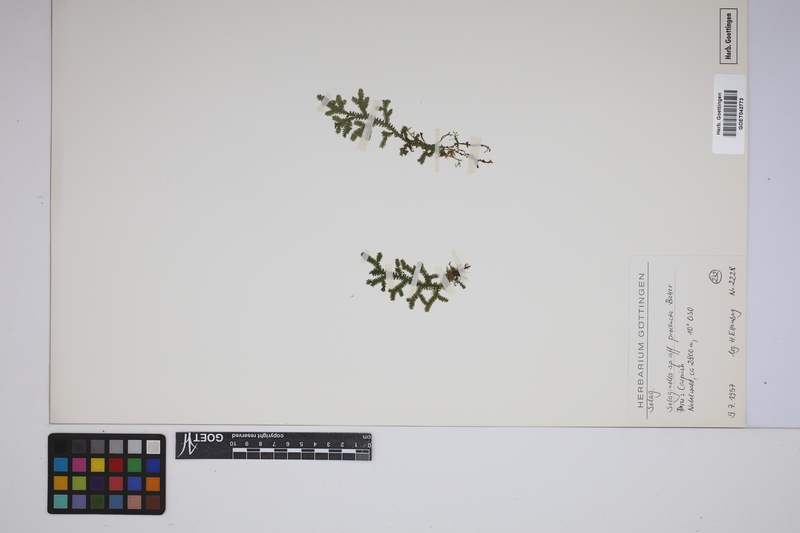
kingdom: Plantae
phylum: Tracheophyta
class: Lycopodiopsida
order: Selaginellales
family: Selaginellaceae
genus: Selaginella
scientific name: Selaginella producta
